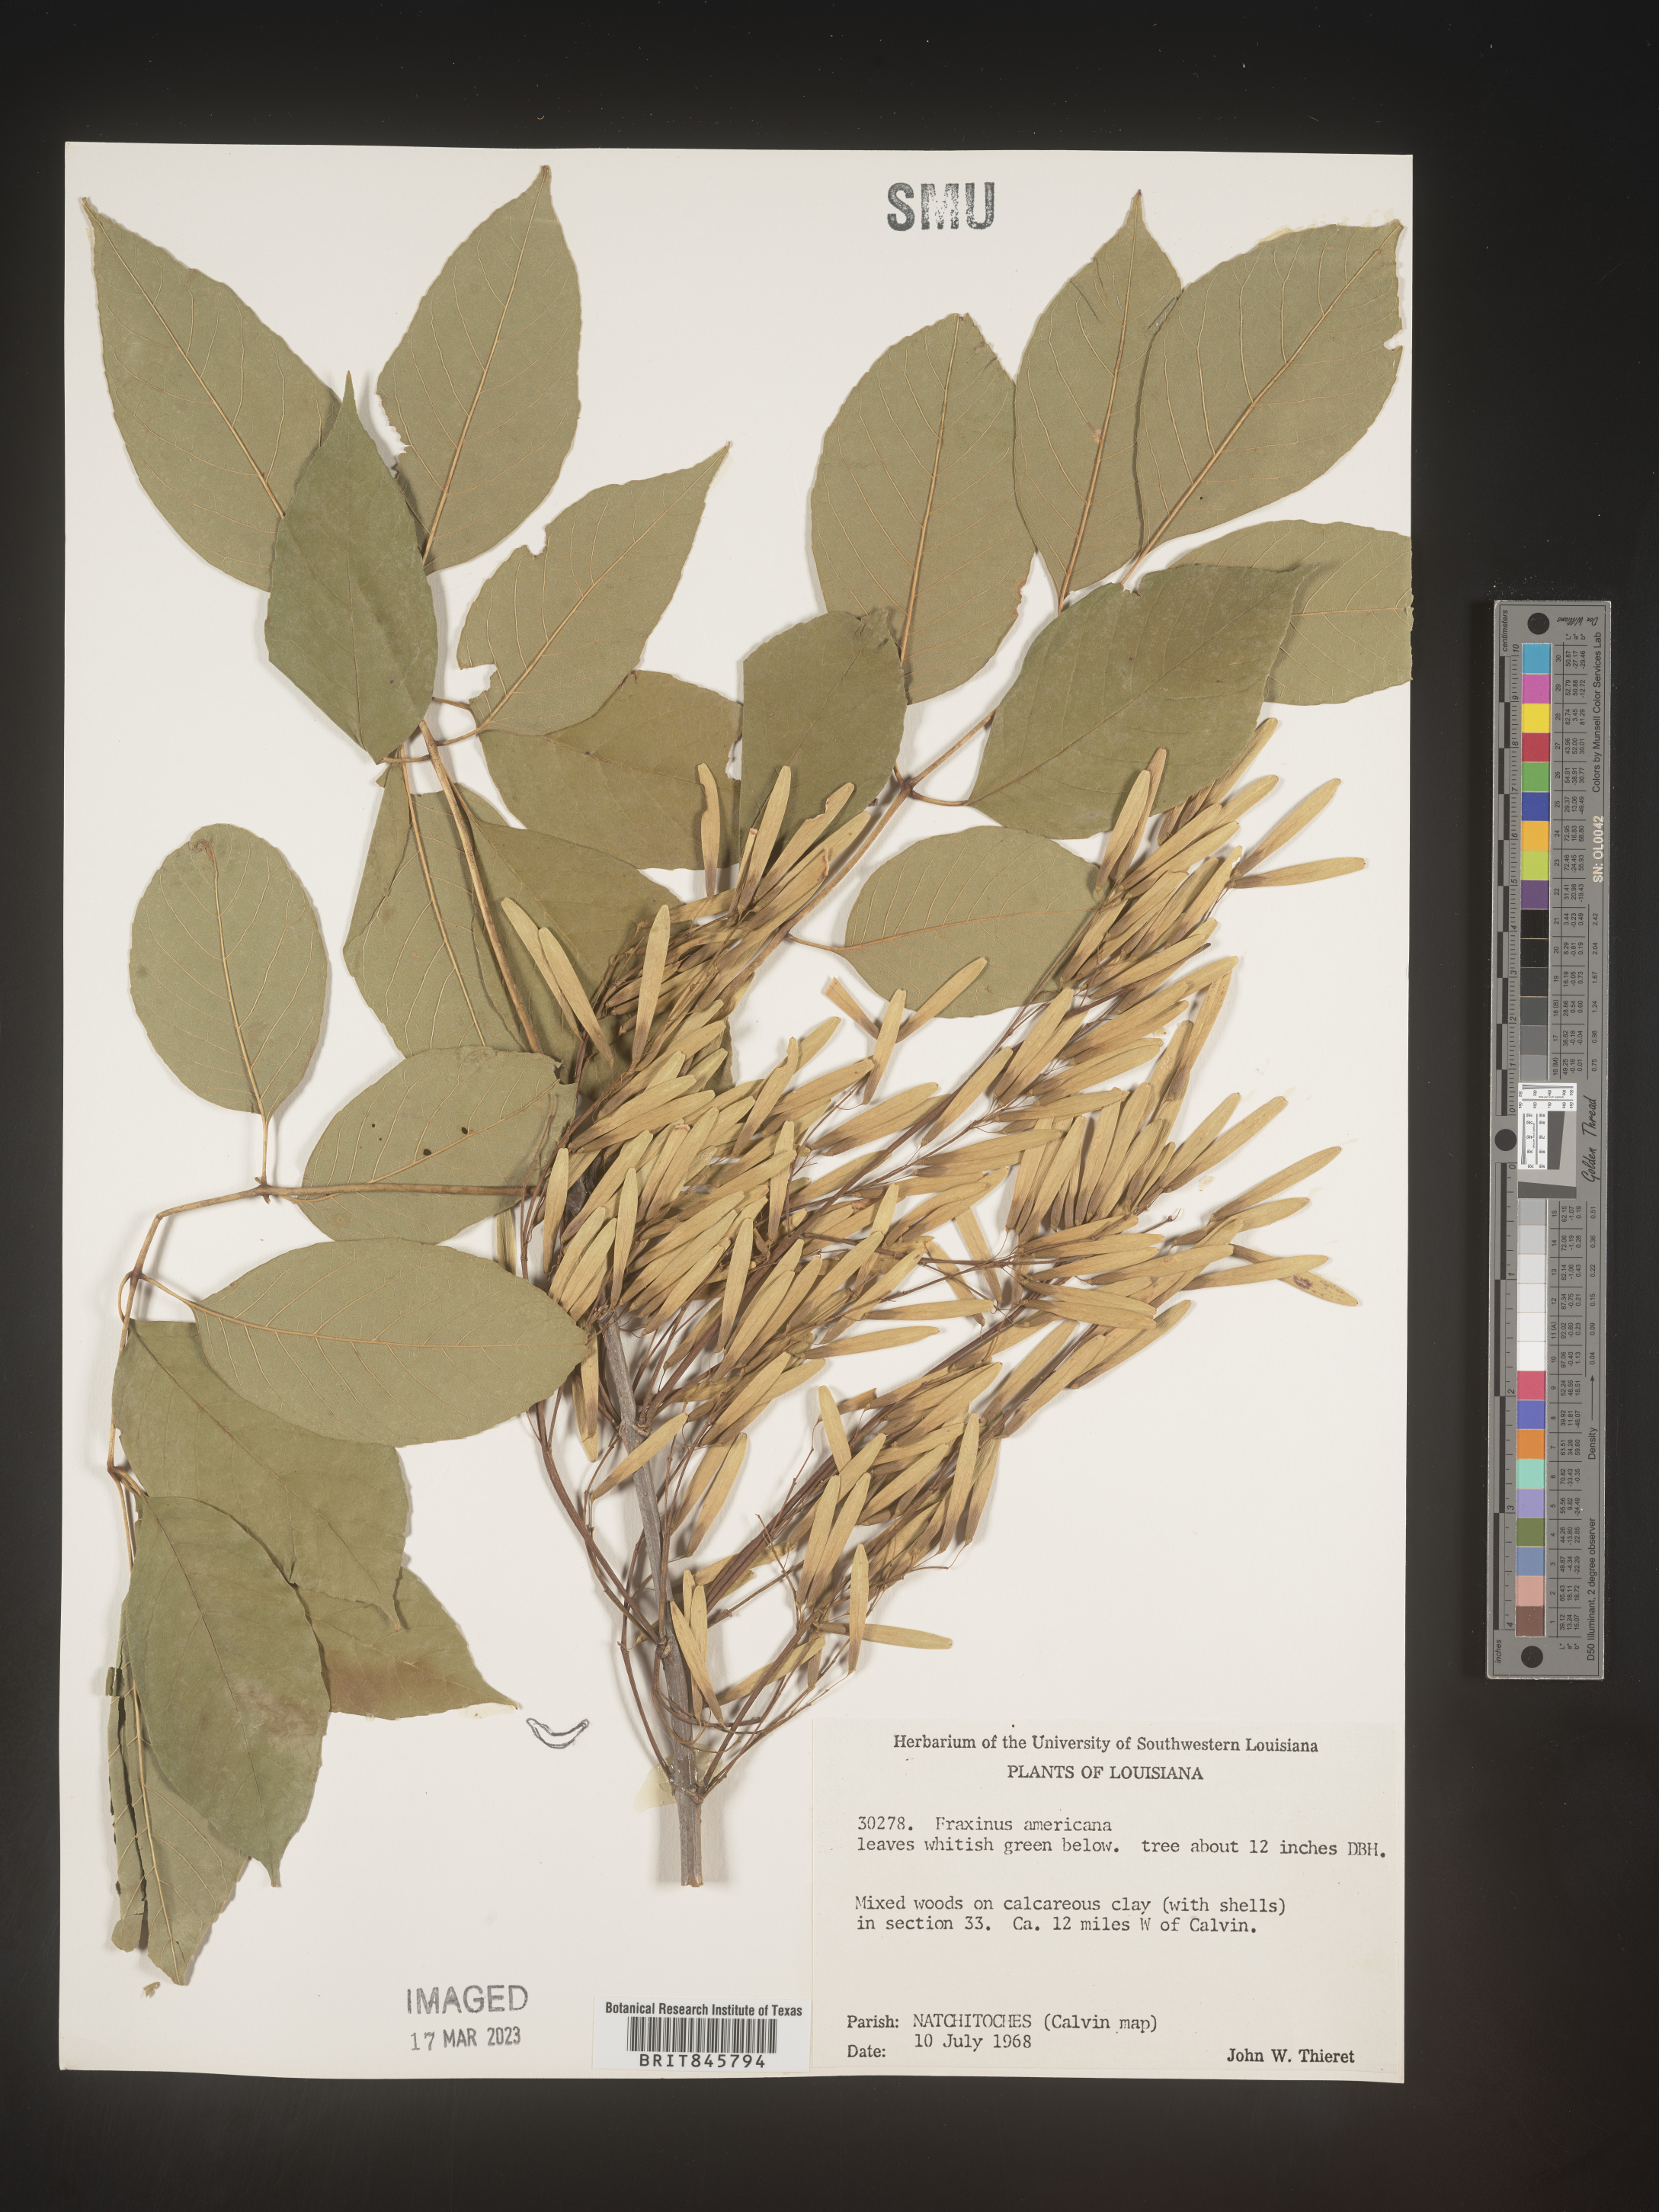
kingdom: Plantae
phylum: Tracheophyta
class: Magnoliopsida
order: Lamiales
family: Oleaceae
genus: Fraxinus
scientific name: Fraxinus americana
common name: White ash
